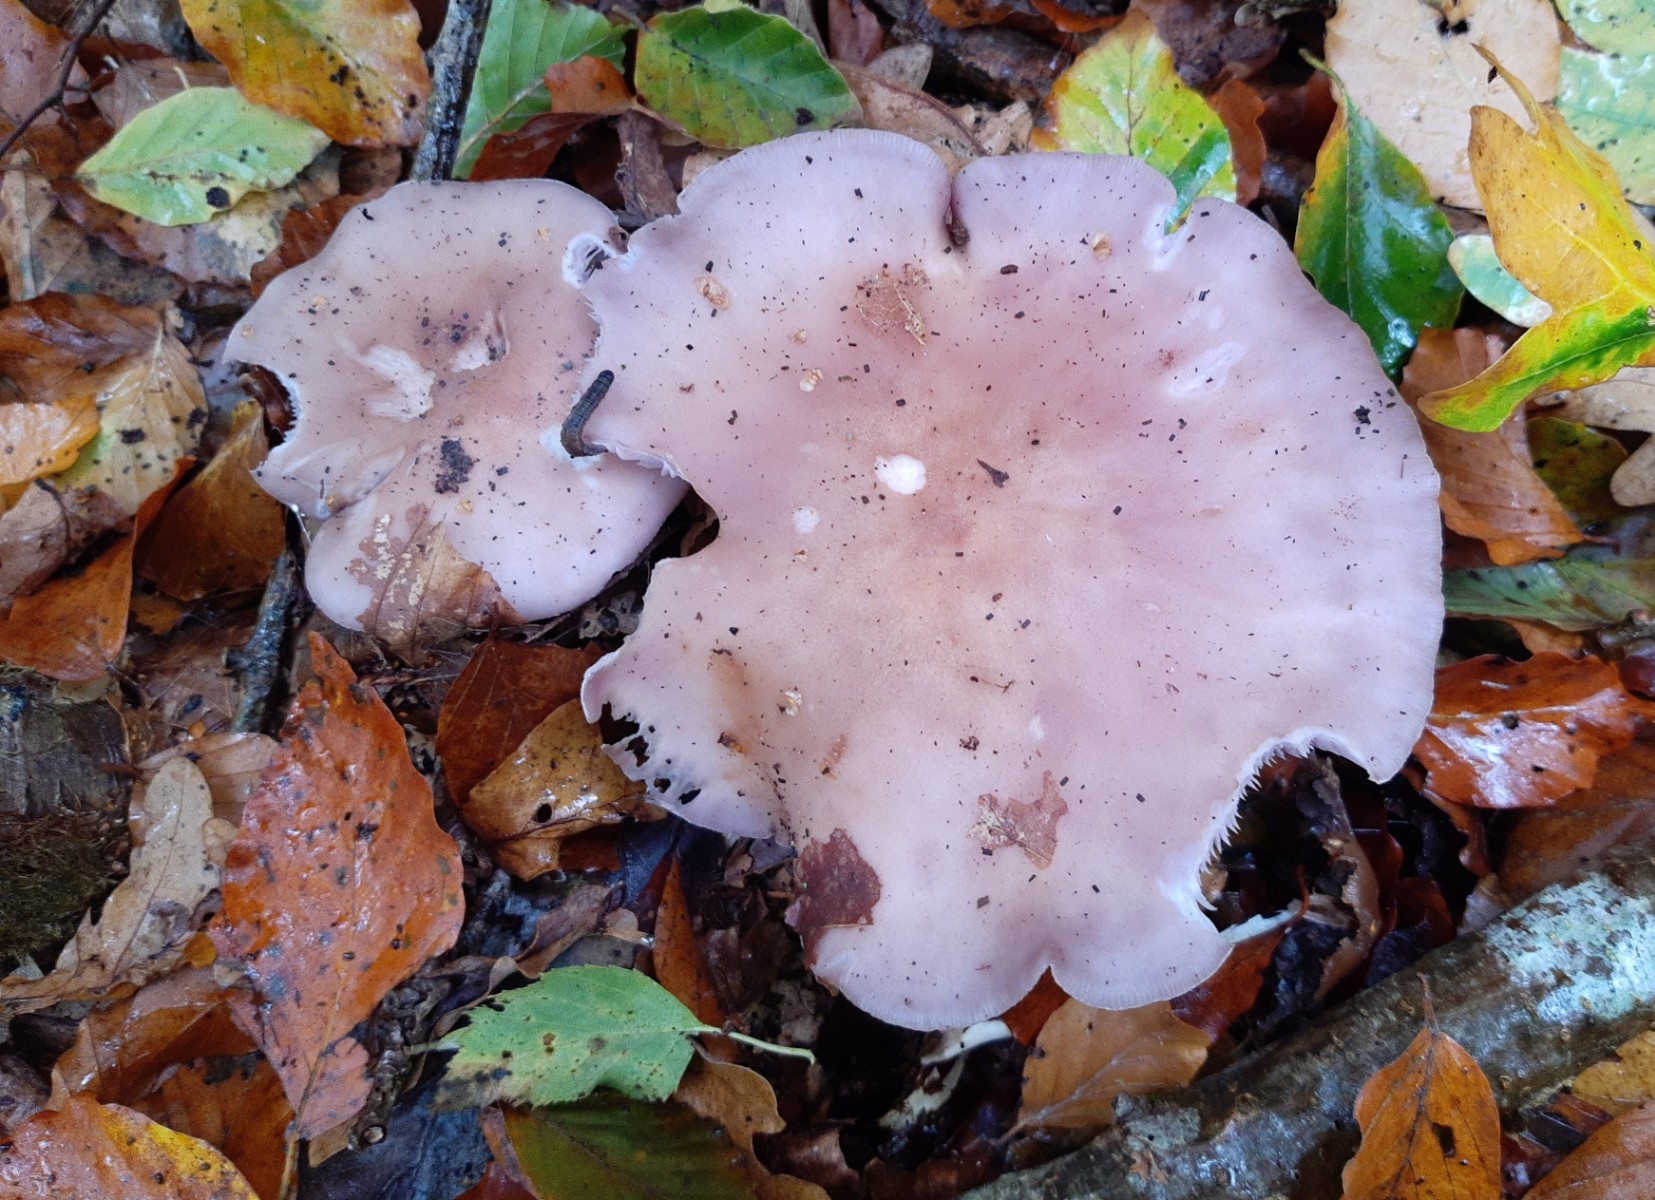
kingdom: Fungi
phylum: Basidiomycota
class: Agaricomycetes
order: Agaricales
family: Tricholomataceae
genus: Lepista
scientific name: Lepista nuda
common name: violet hekseringshat
